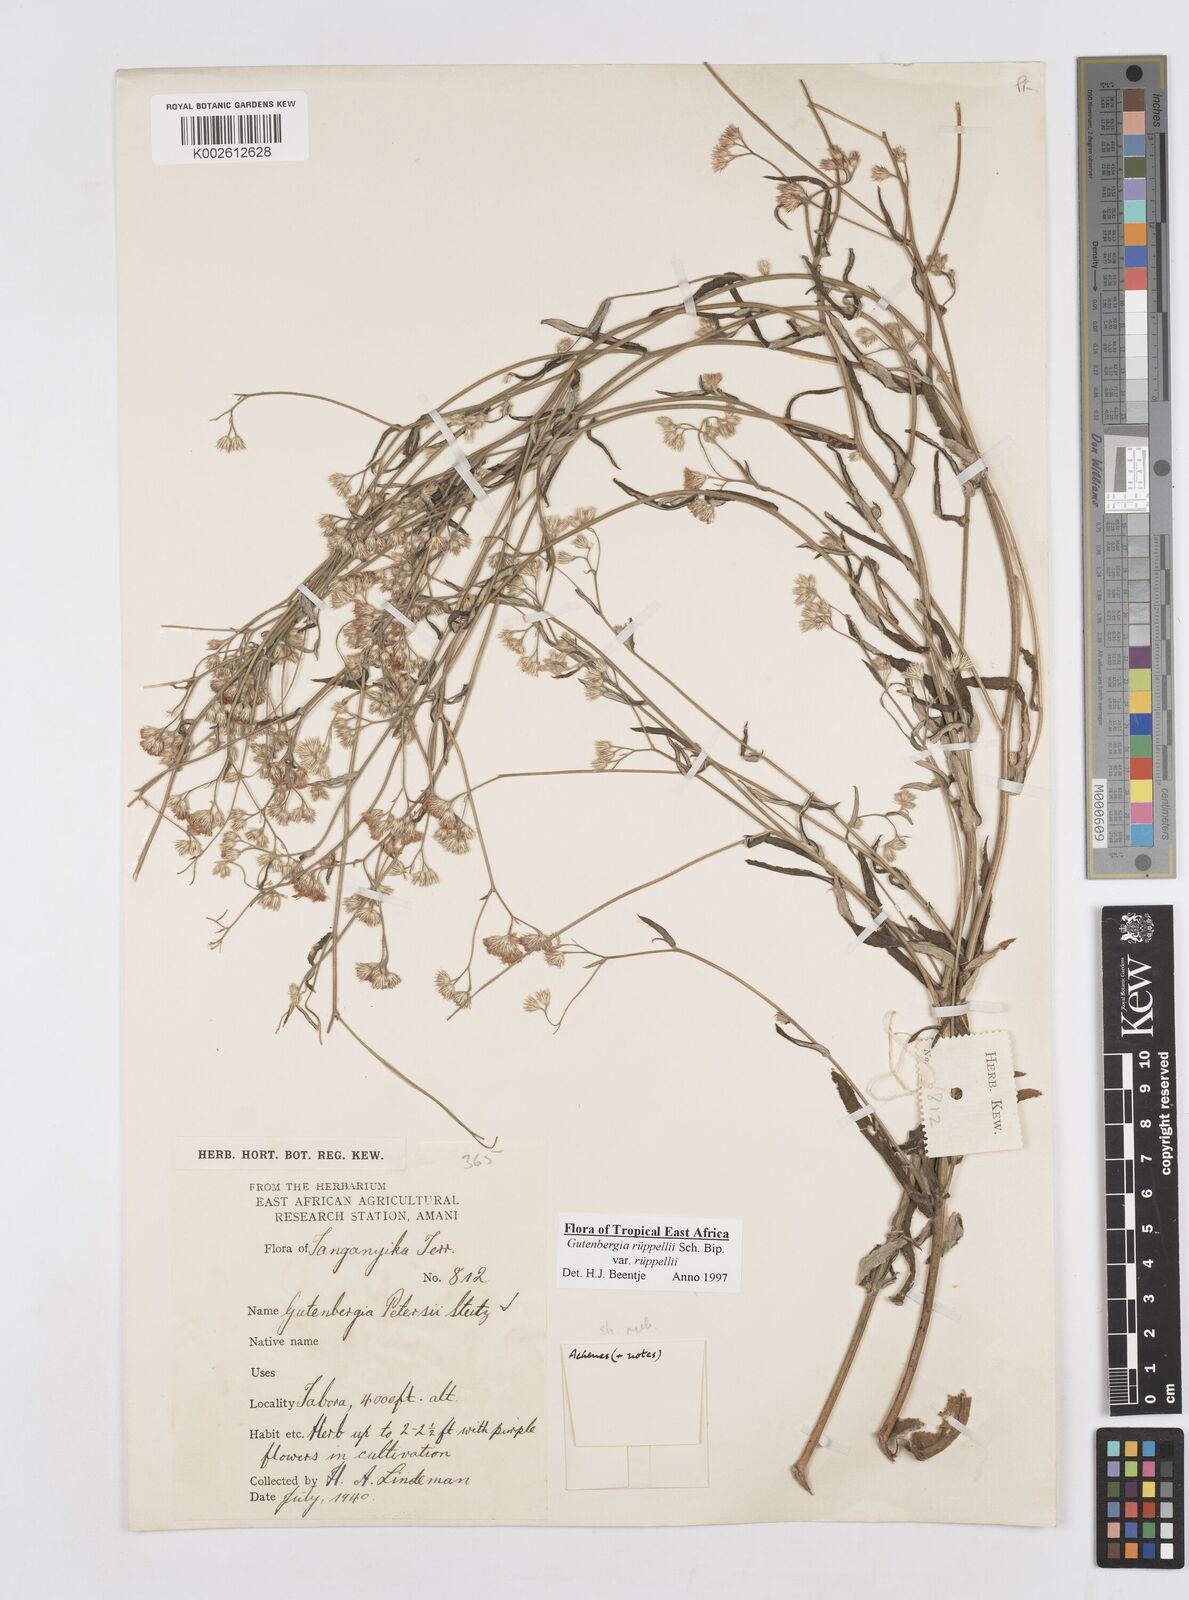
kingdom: Plantae
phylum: Tracheophyta
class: Magnoliopsida
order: Asterales
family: Asteraceae
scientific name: Asteraceae
